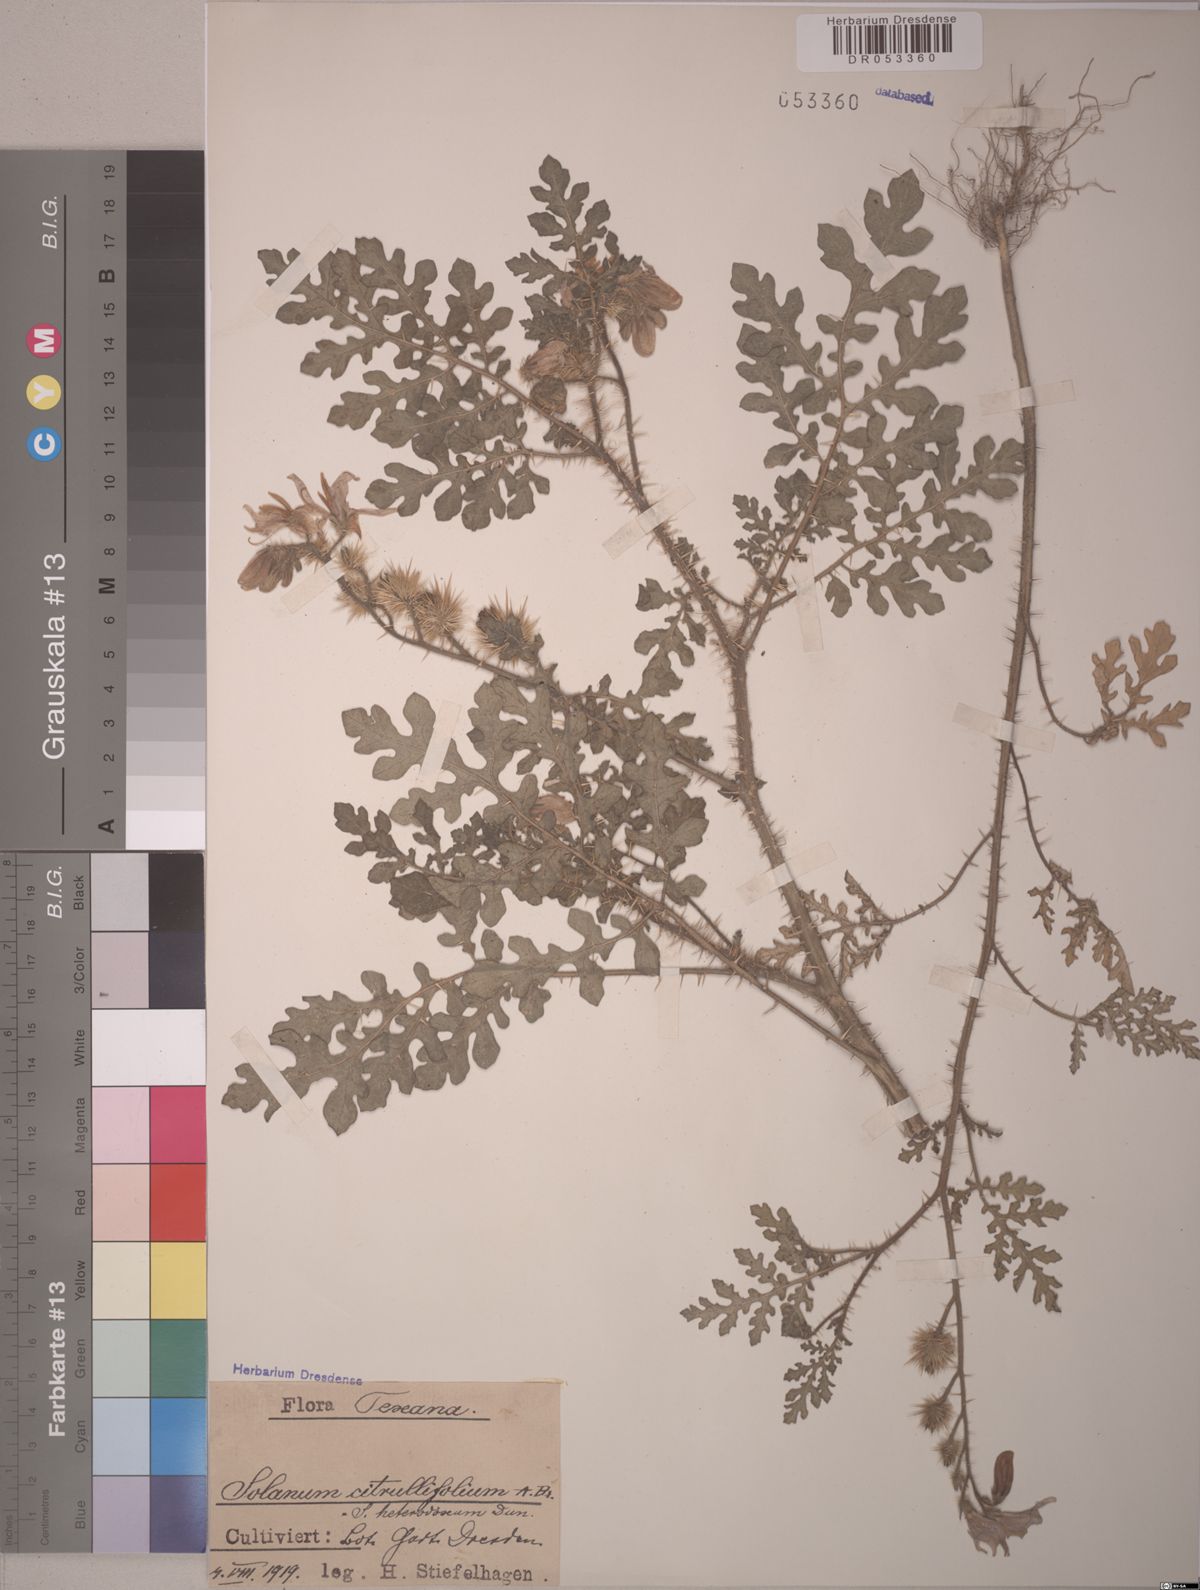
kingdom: Plantae
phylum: Tracheophyta
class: Magnoliopsida
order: Solanales
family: Solanaceae
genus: Solanum
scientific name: Solanum citrullifolium
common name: Melon-leaf nightshade
